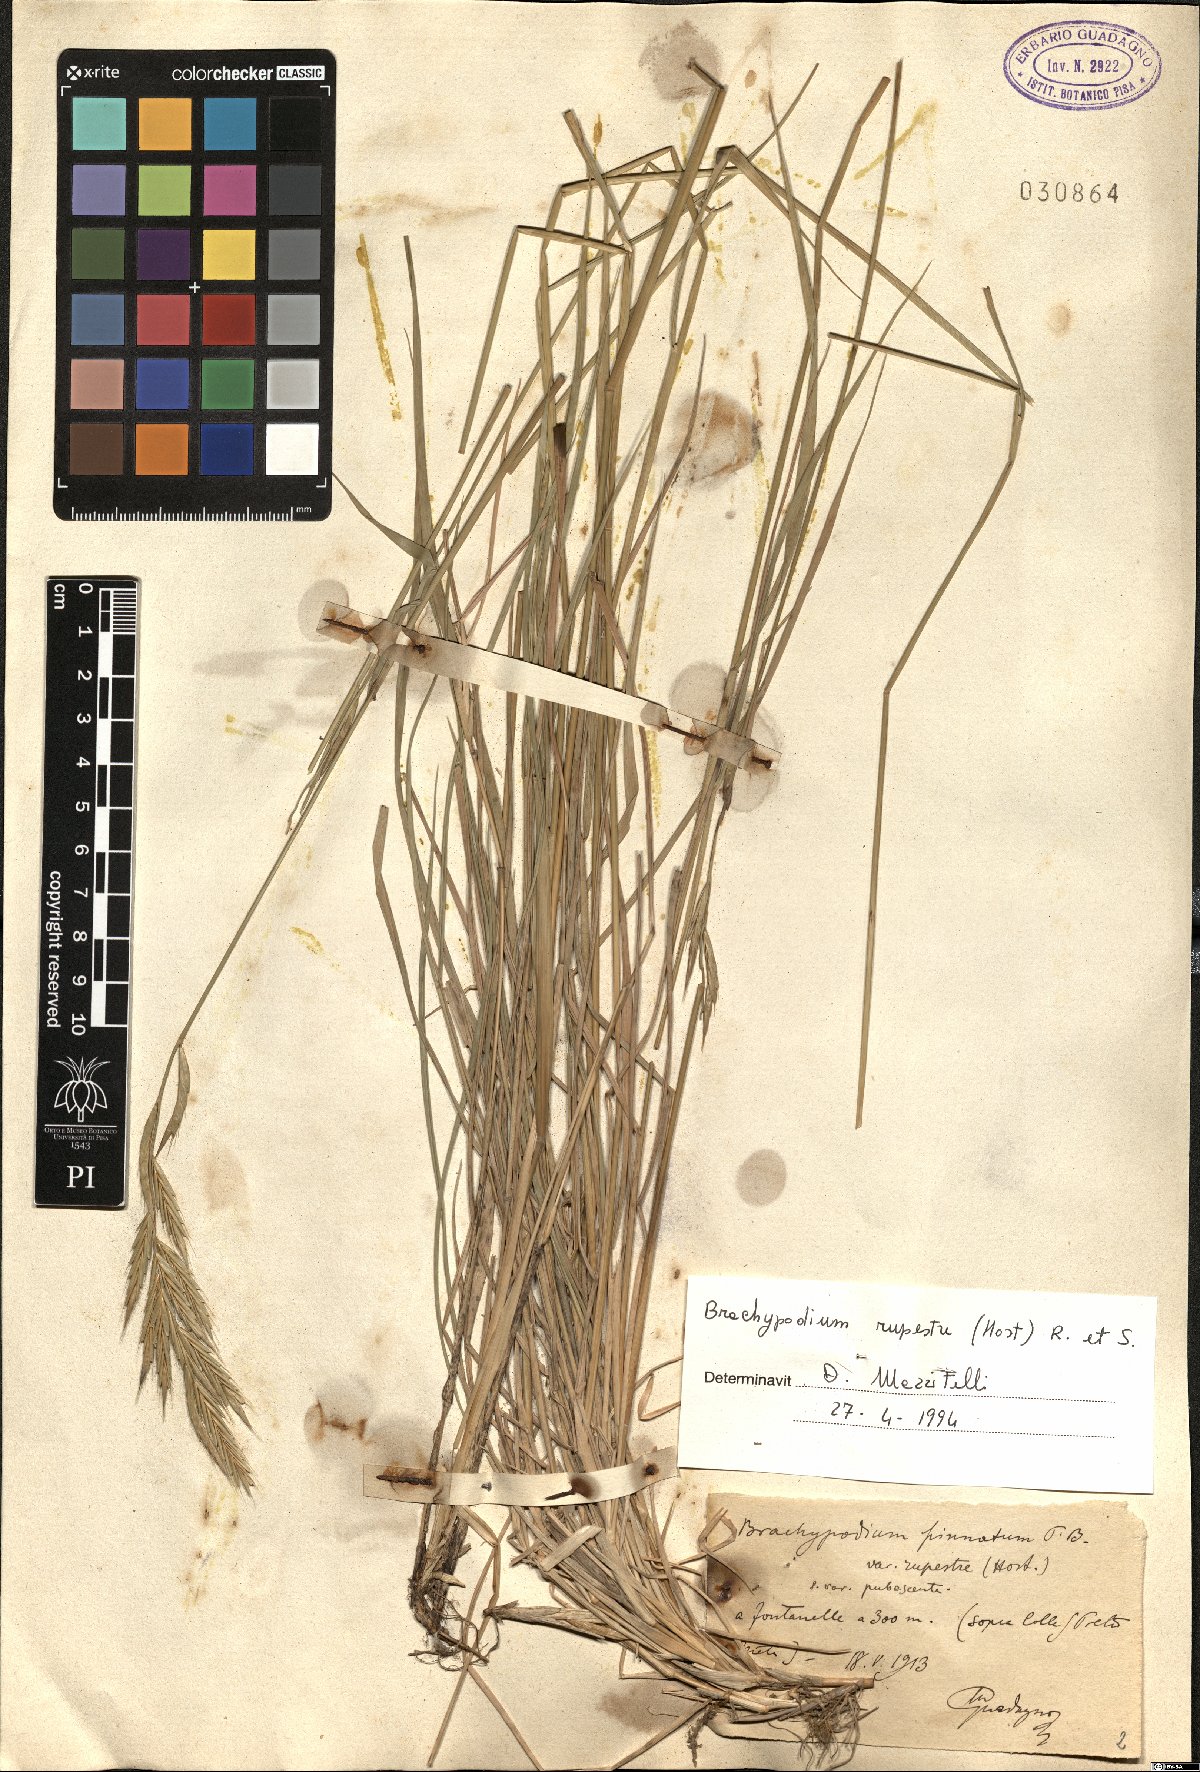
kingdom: Plantae
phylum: Tracheophyta
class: Liliopsida
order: Poales
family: Poaceae
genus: Brachypodium
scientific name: Brachypodium pinnatum
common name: Tor grass
